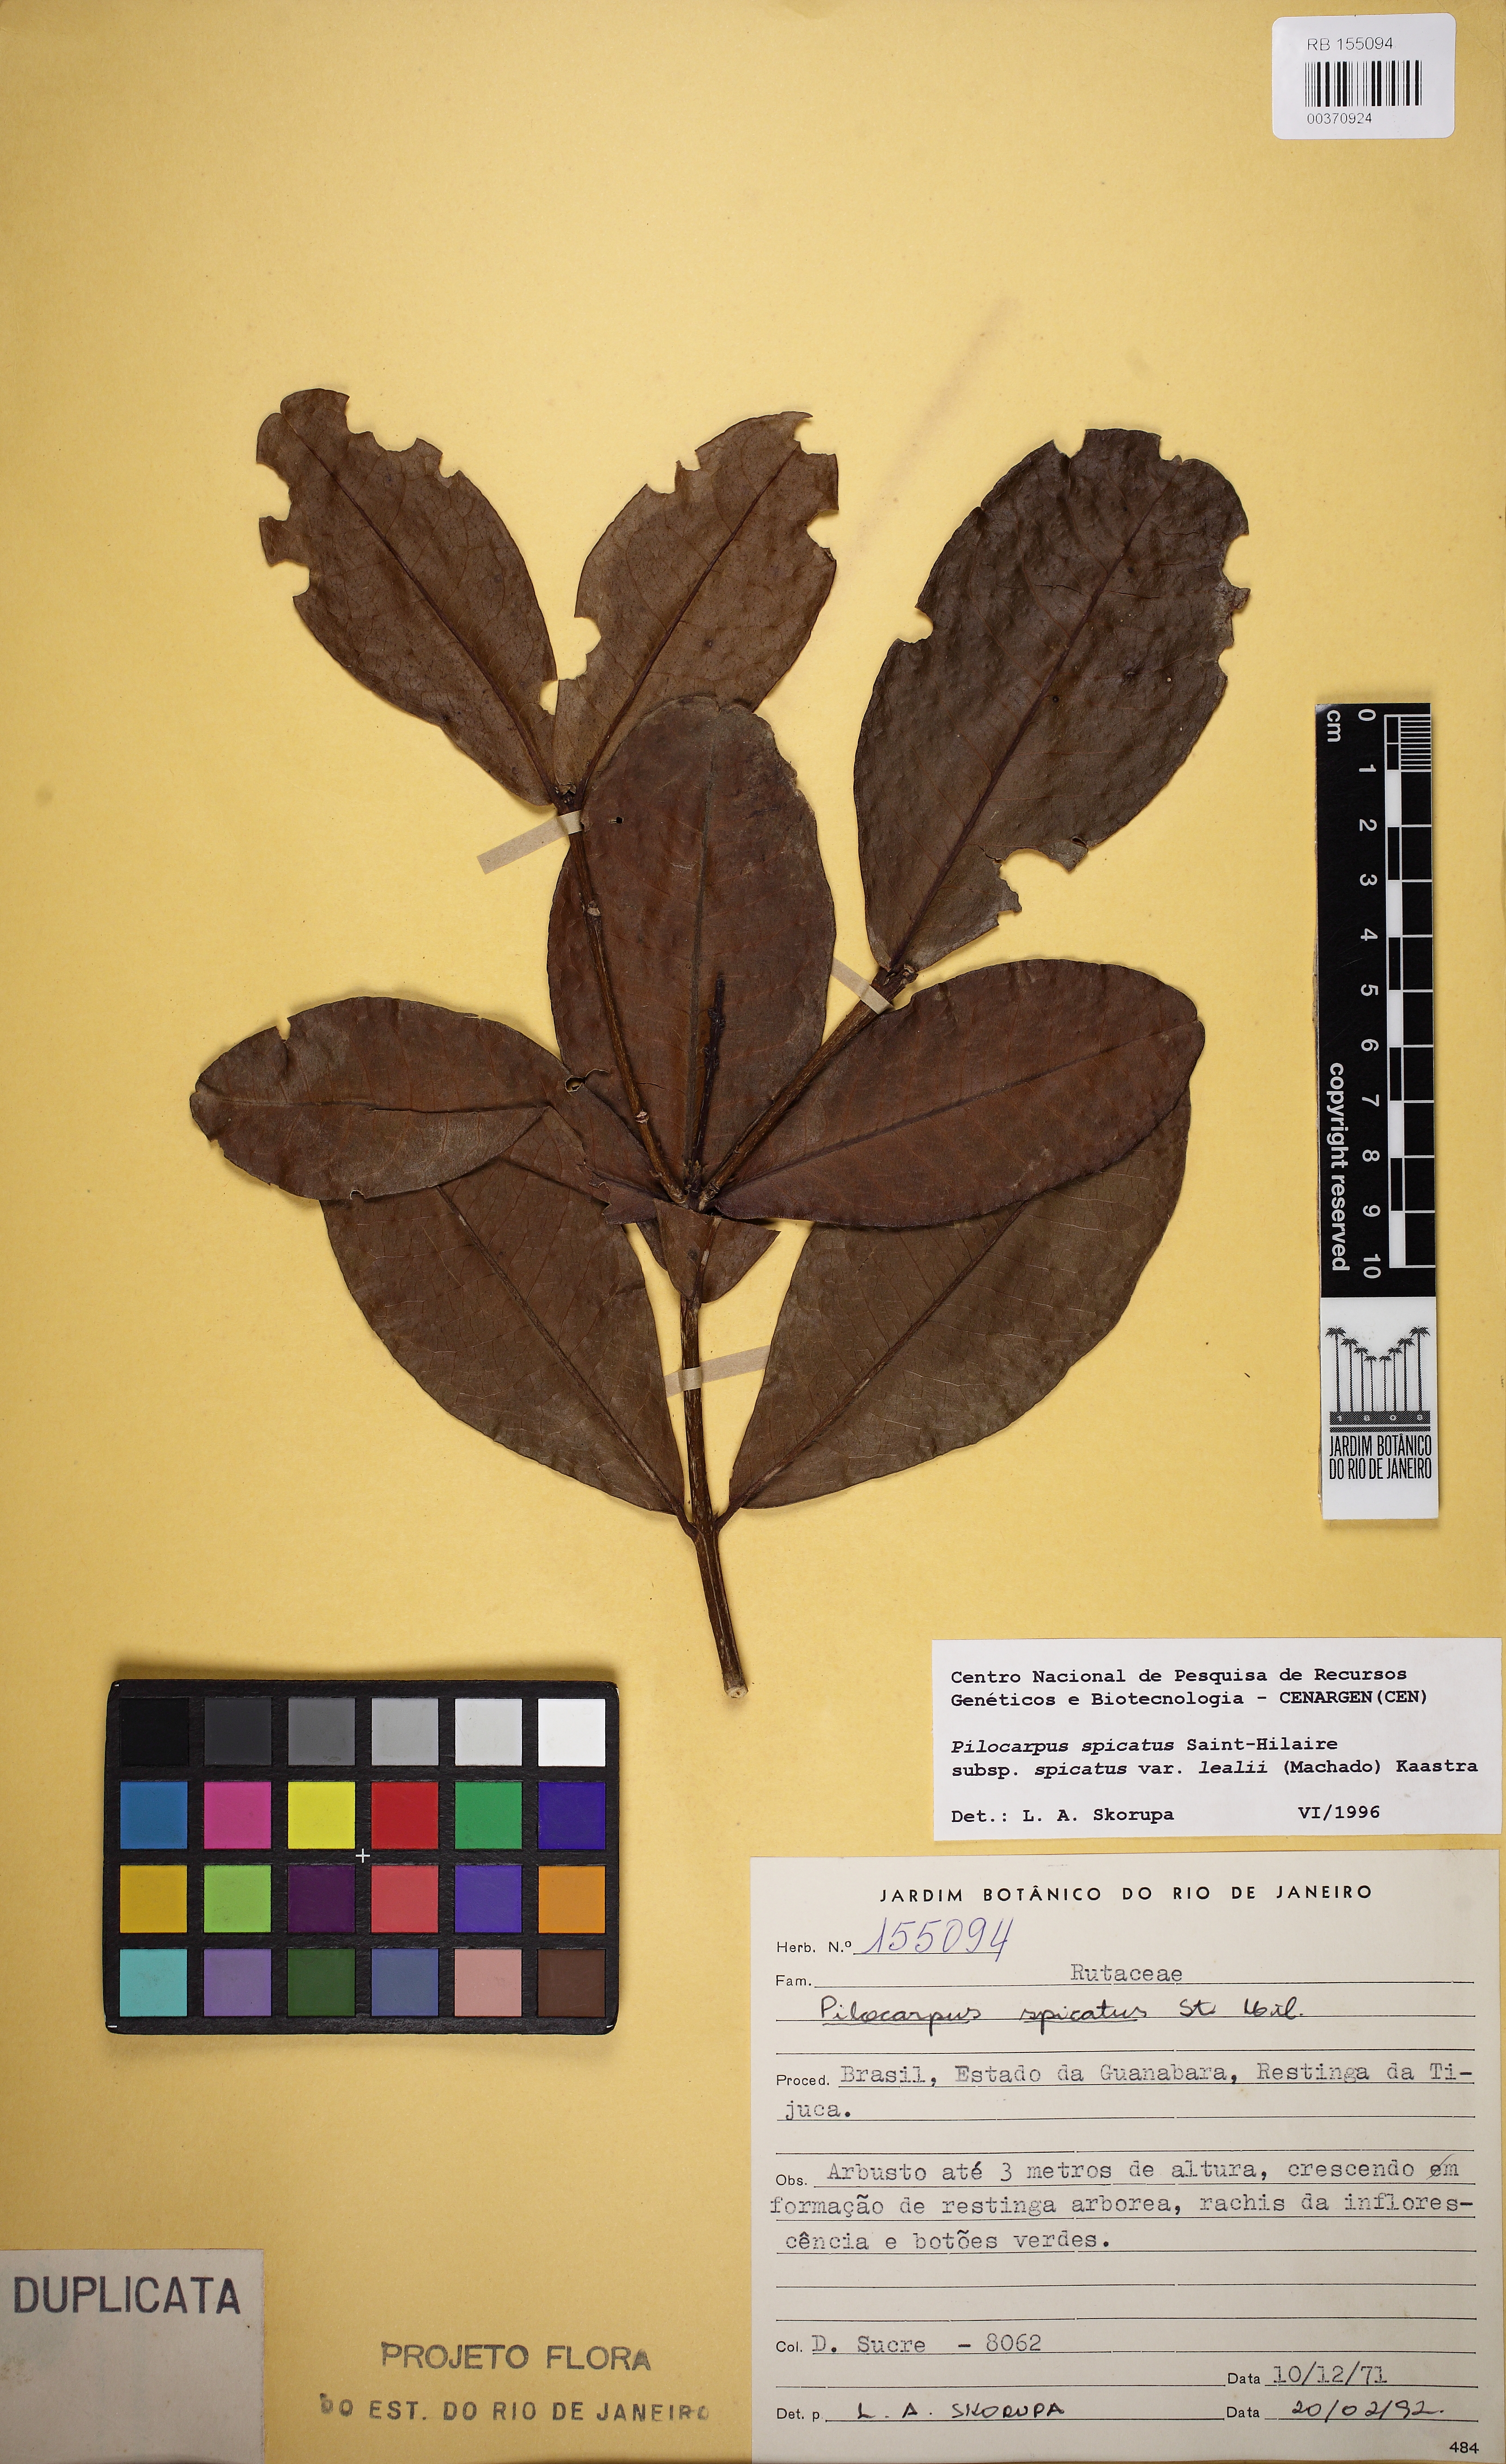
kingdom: Plantae
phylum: Tracheophyta
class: Magnoliopsida
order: Sapindales
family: Rutaceae
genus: Pilocarpus
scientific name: Pilocarpus spicatus
